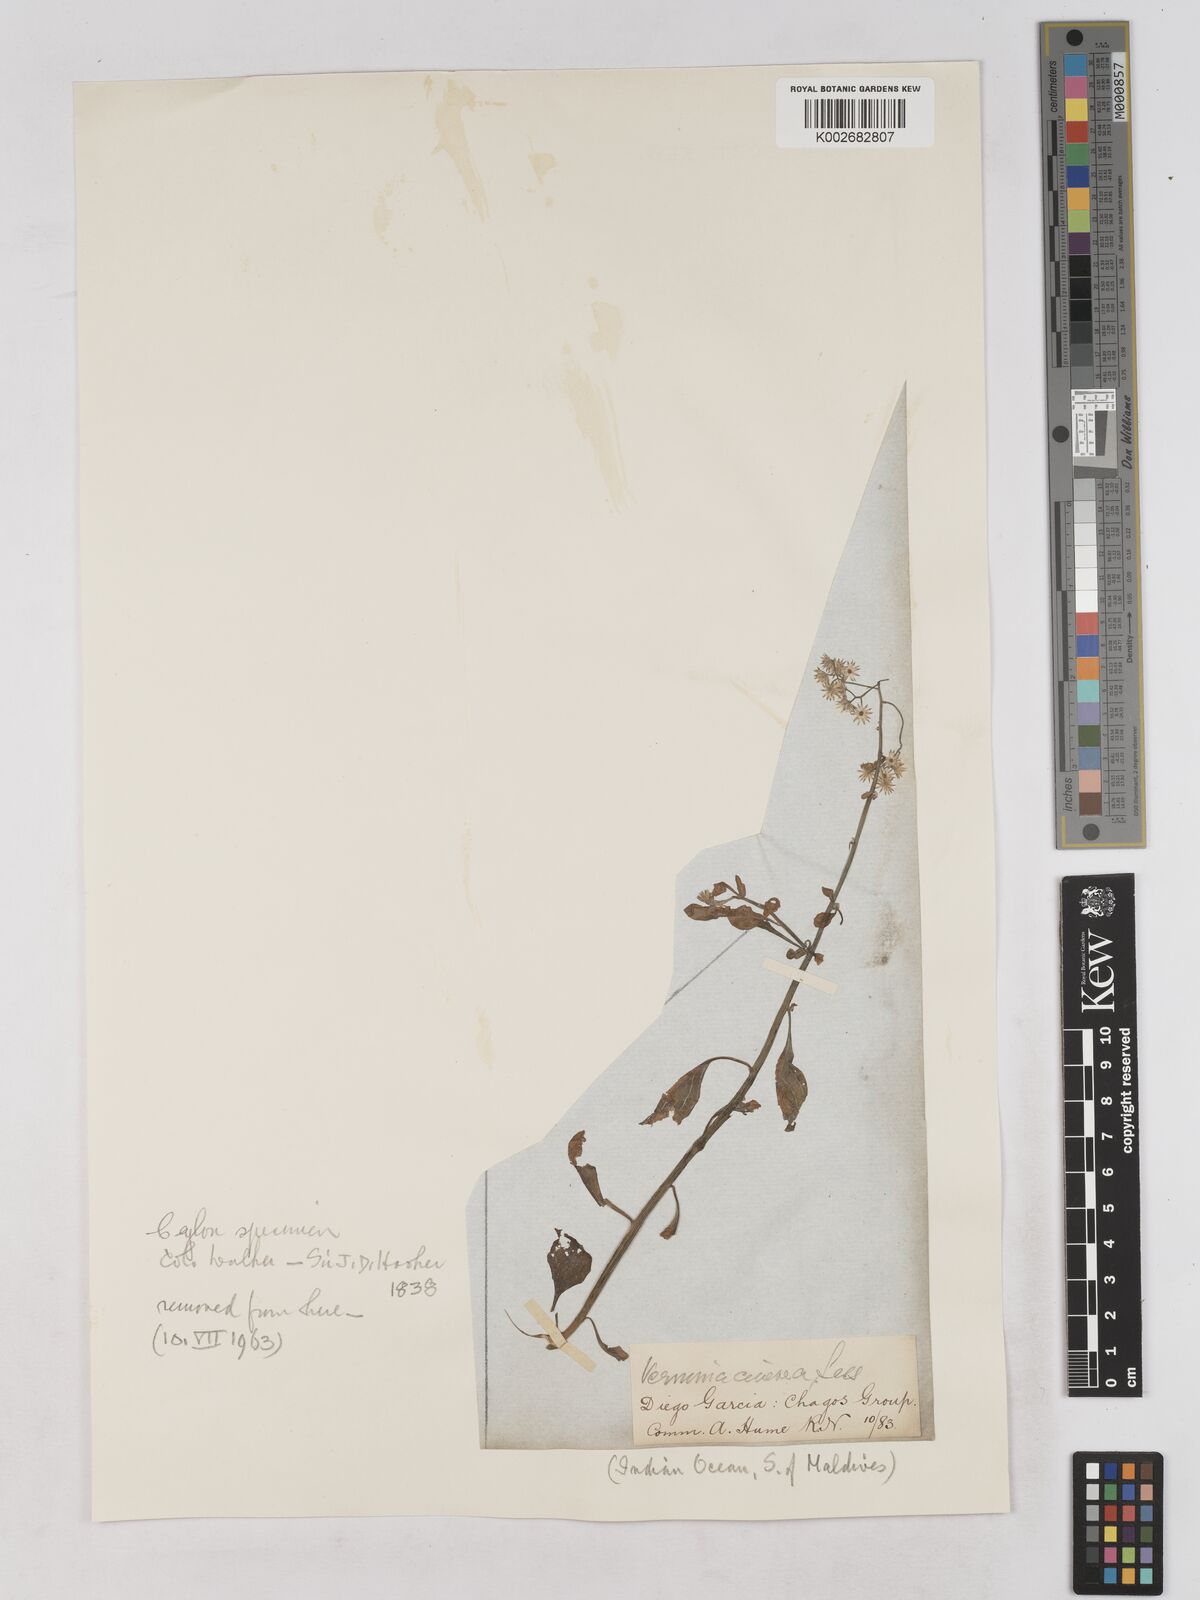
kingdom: Plantae
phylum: Tracheophyta
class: Magnoliopsida
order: Asterales
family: Asteraceae
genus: Cyanthillium
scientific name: Cyanthillium cinereum
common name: Little ironweed
